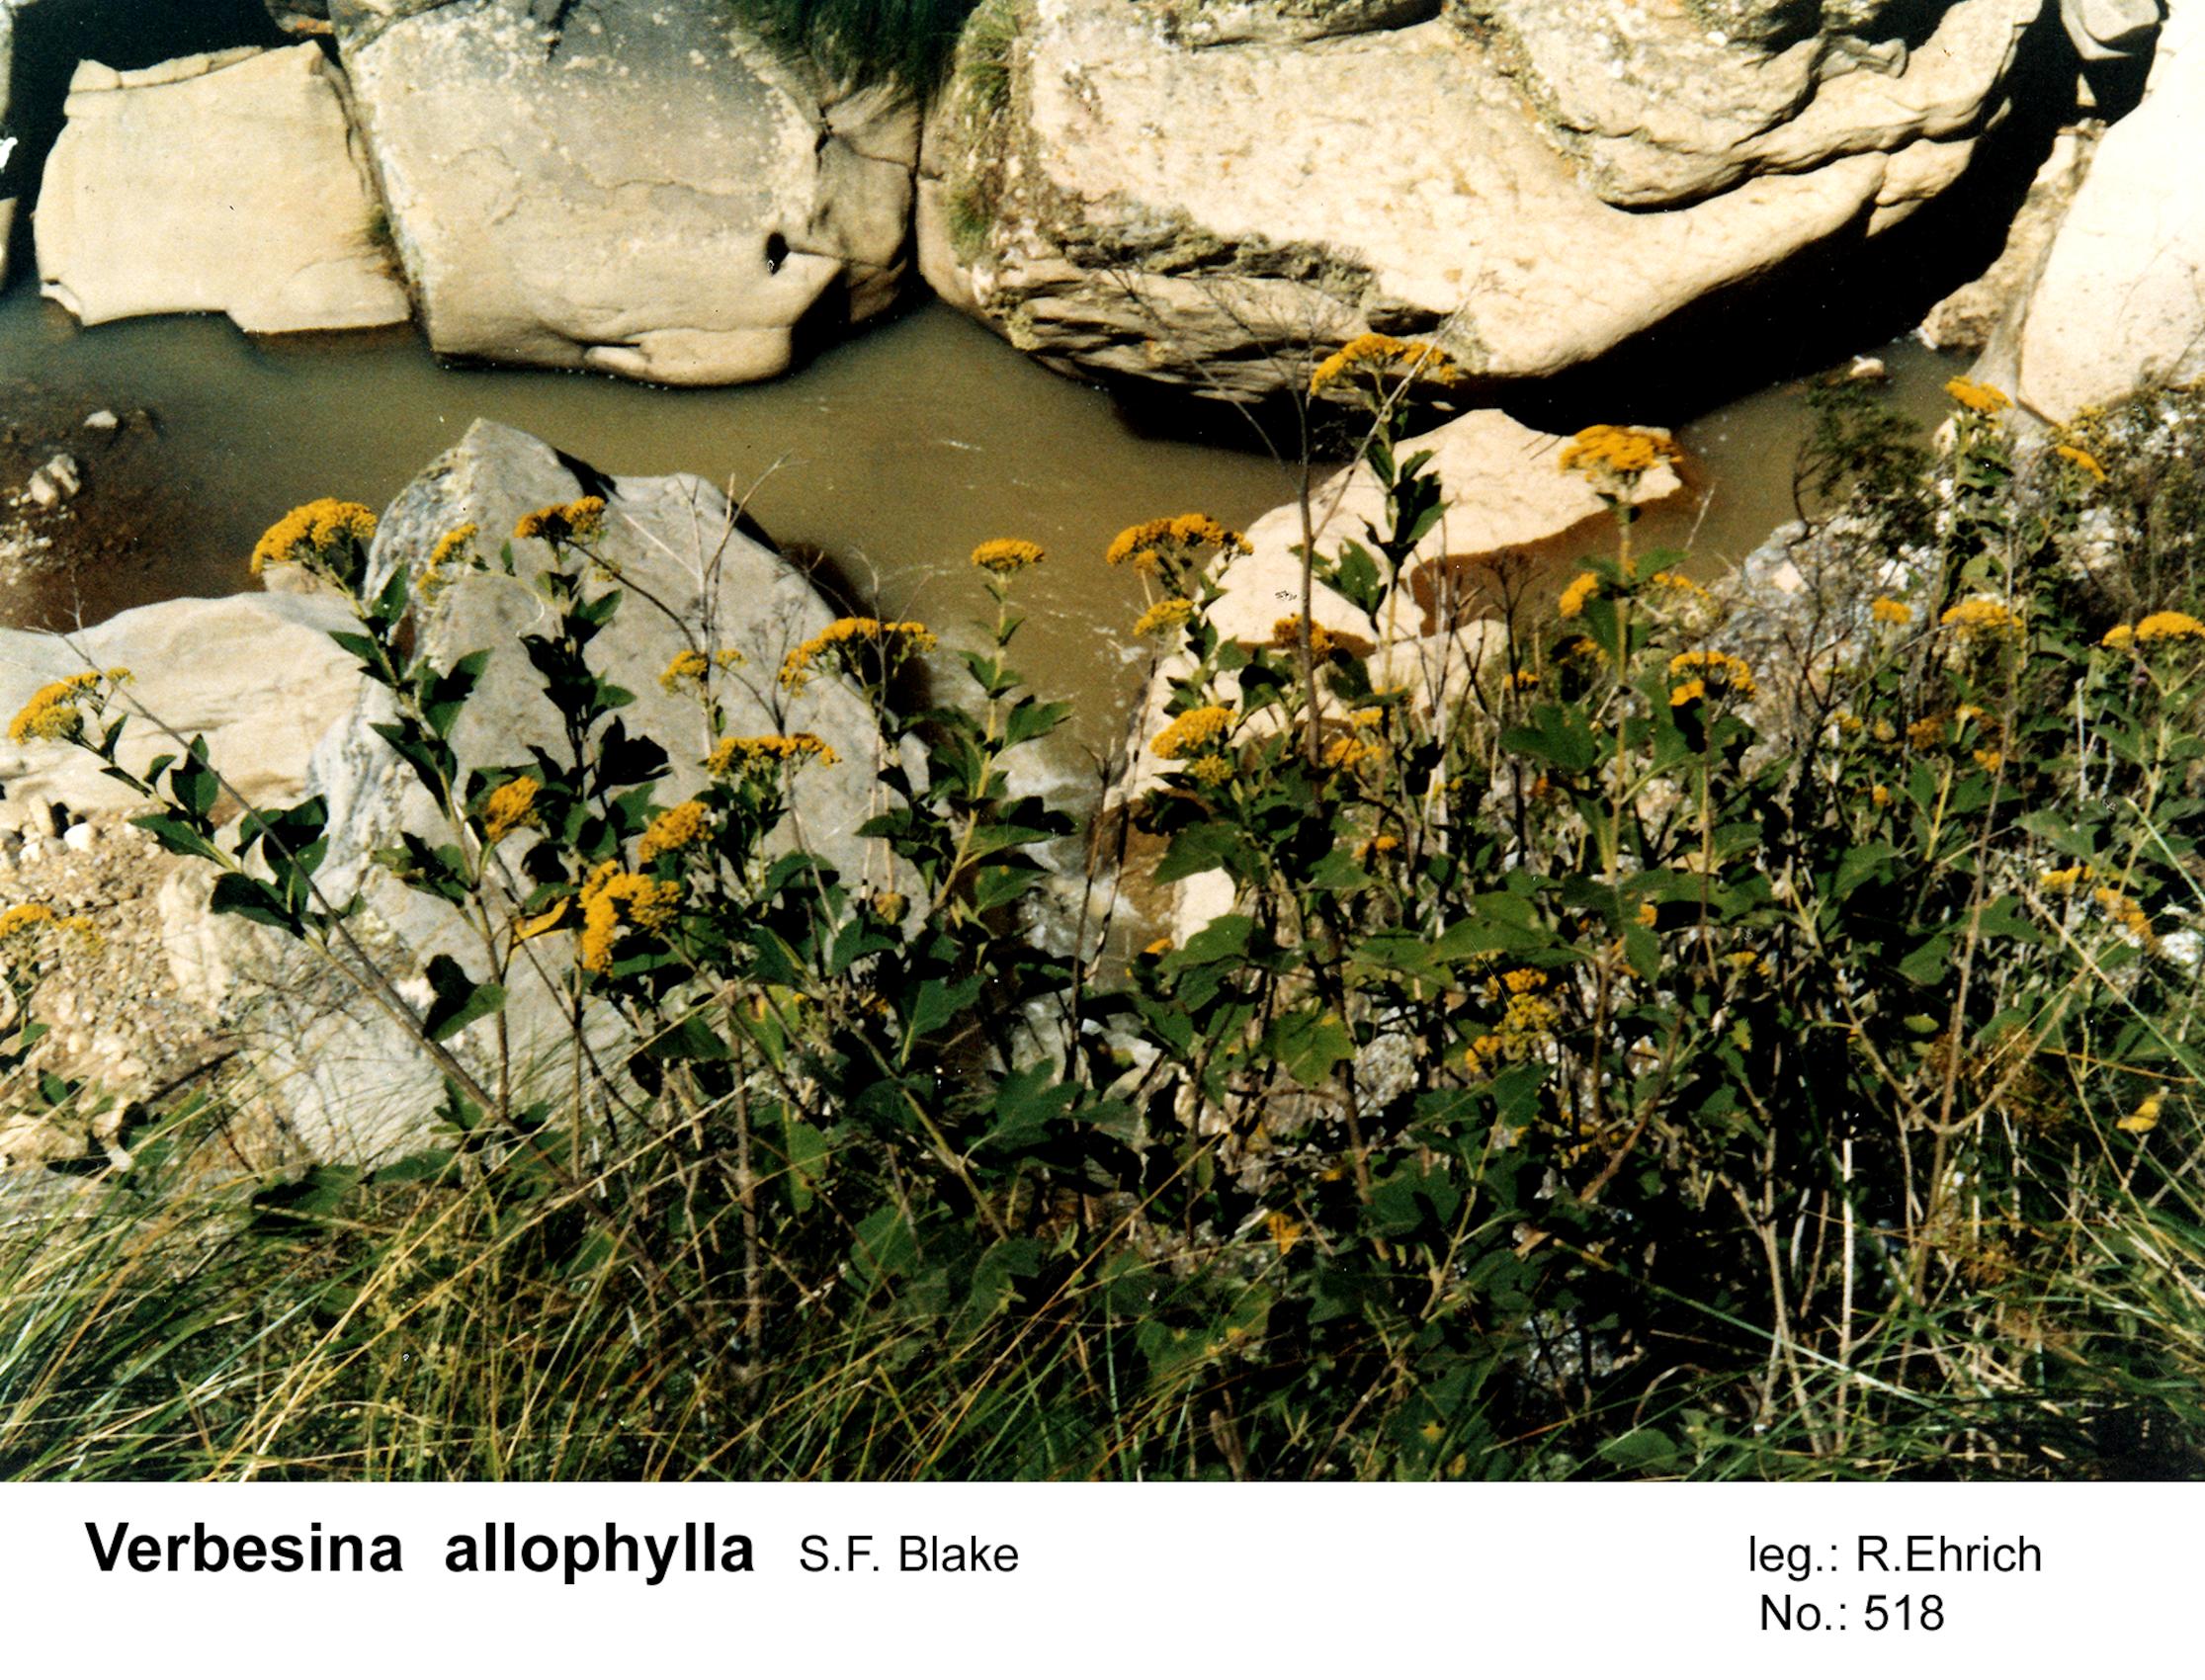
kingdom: Plantae
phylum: Tracheophyta
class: Magnoliopsida
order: Asterales
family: Asteraceae
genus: Verbesina
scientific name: Verbesina allophylla
